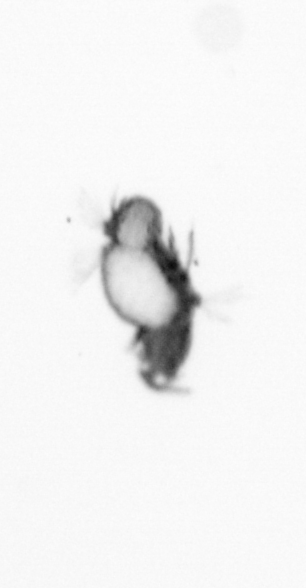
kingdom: Animalia
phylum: Annelida
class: Polychaeta
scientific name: Polychaeta
